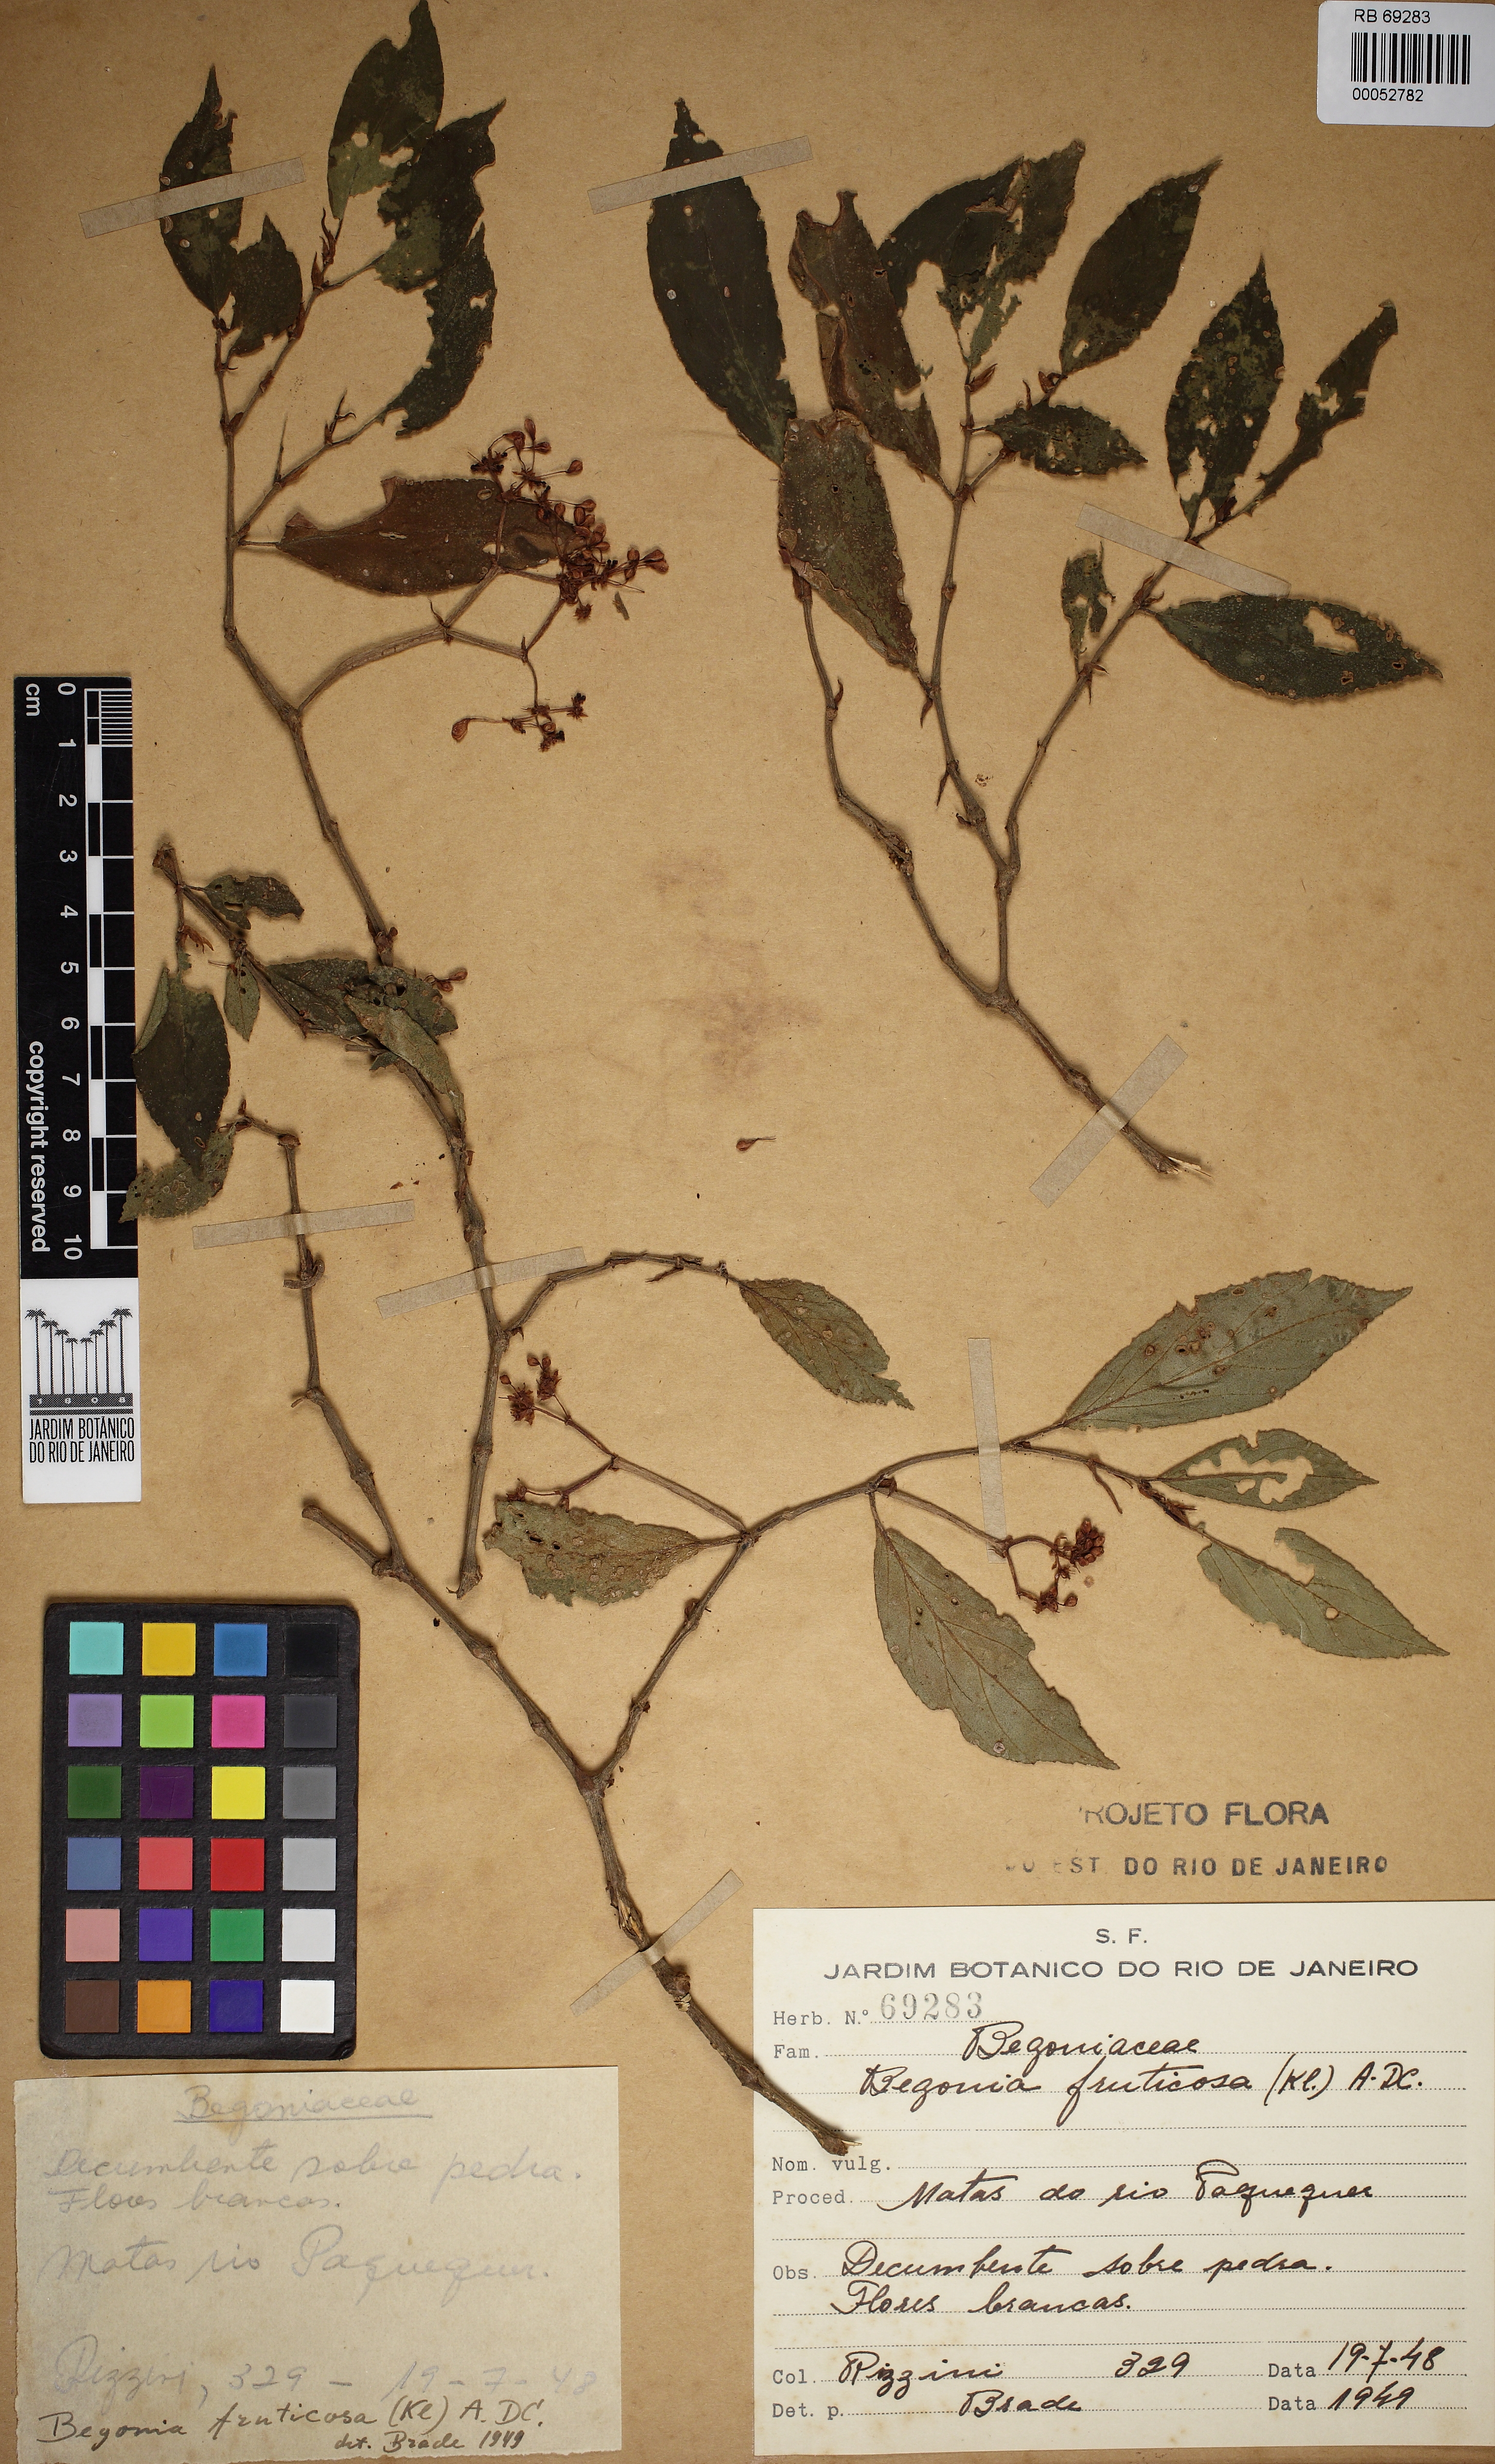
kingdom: Plantae
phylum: Tracheophyta
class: Magnoliopsida
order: Cucurbitales
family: Begoniaceae
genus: Begonia
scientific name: Begonia fruticosa
